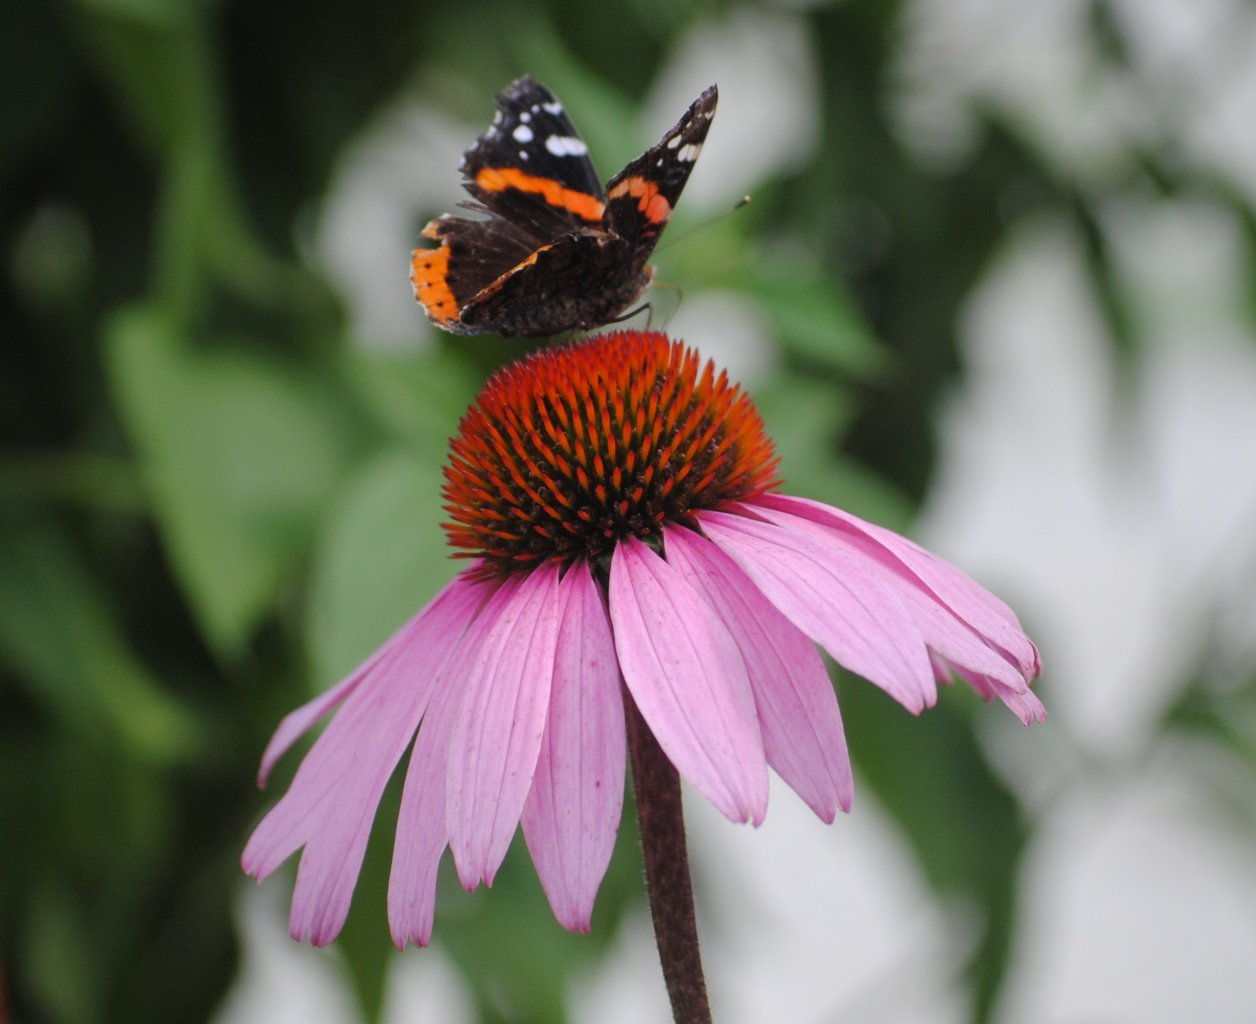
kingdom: Animalia
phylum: Arthropoda
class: Insecta
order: Lepidoptera
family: Nymphalidae
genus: Vanessa
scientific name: Vanessa atalanta
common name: Red Admiral
